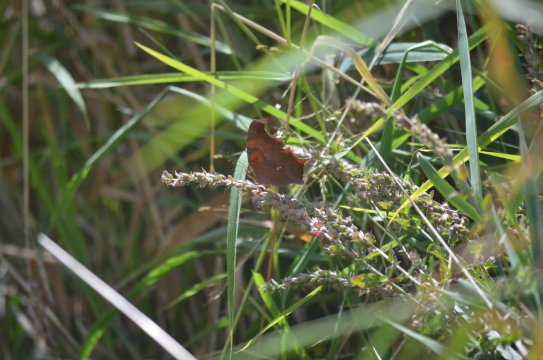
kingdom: Animalia
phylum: Arthropoda
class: Insecta
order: Lepidoptera
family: Nymphalidae
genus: Polygonia
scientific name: Polygonia interrogationis
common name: Question Mark
